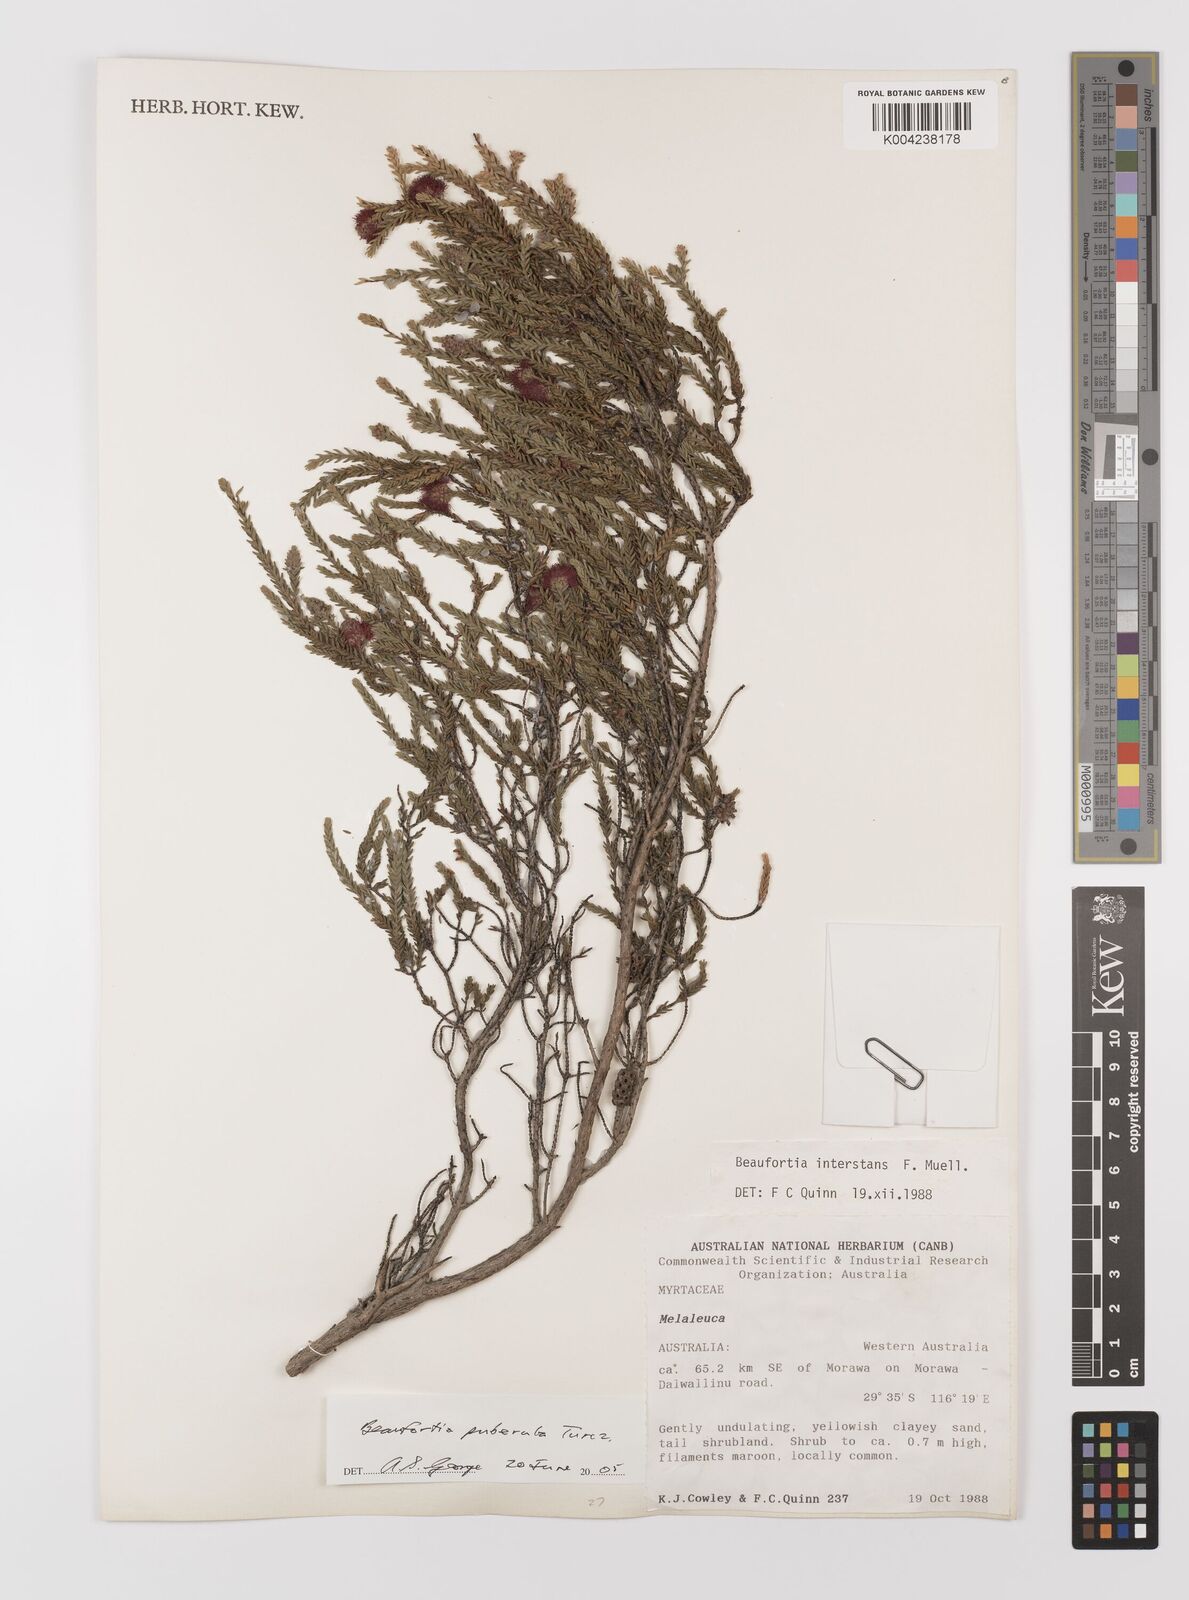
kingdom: Plantae
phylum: Tracheophyta
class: Magnoliopsida
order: Myrtales
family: Myrtaceae
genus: Melaleuca
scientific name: Melaleuca micrantha
